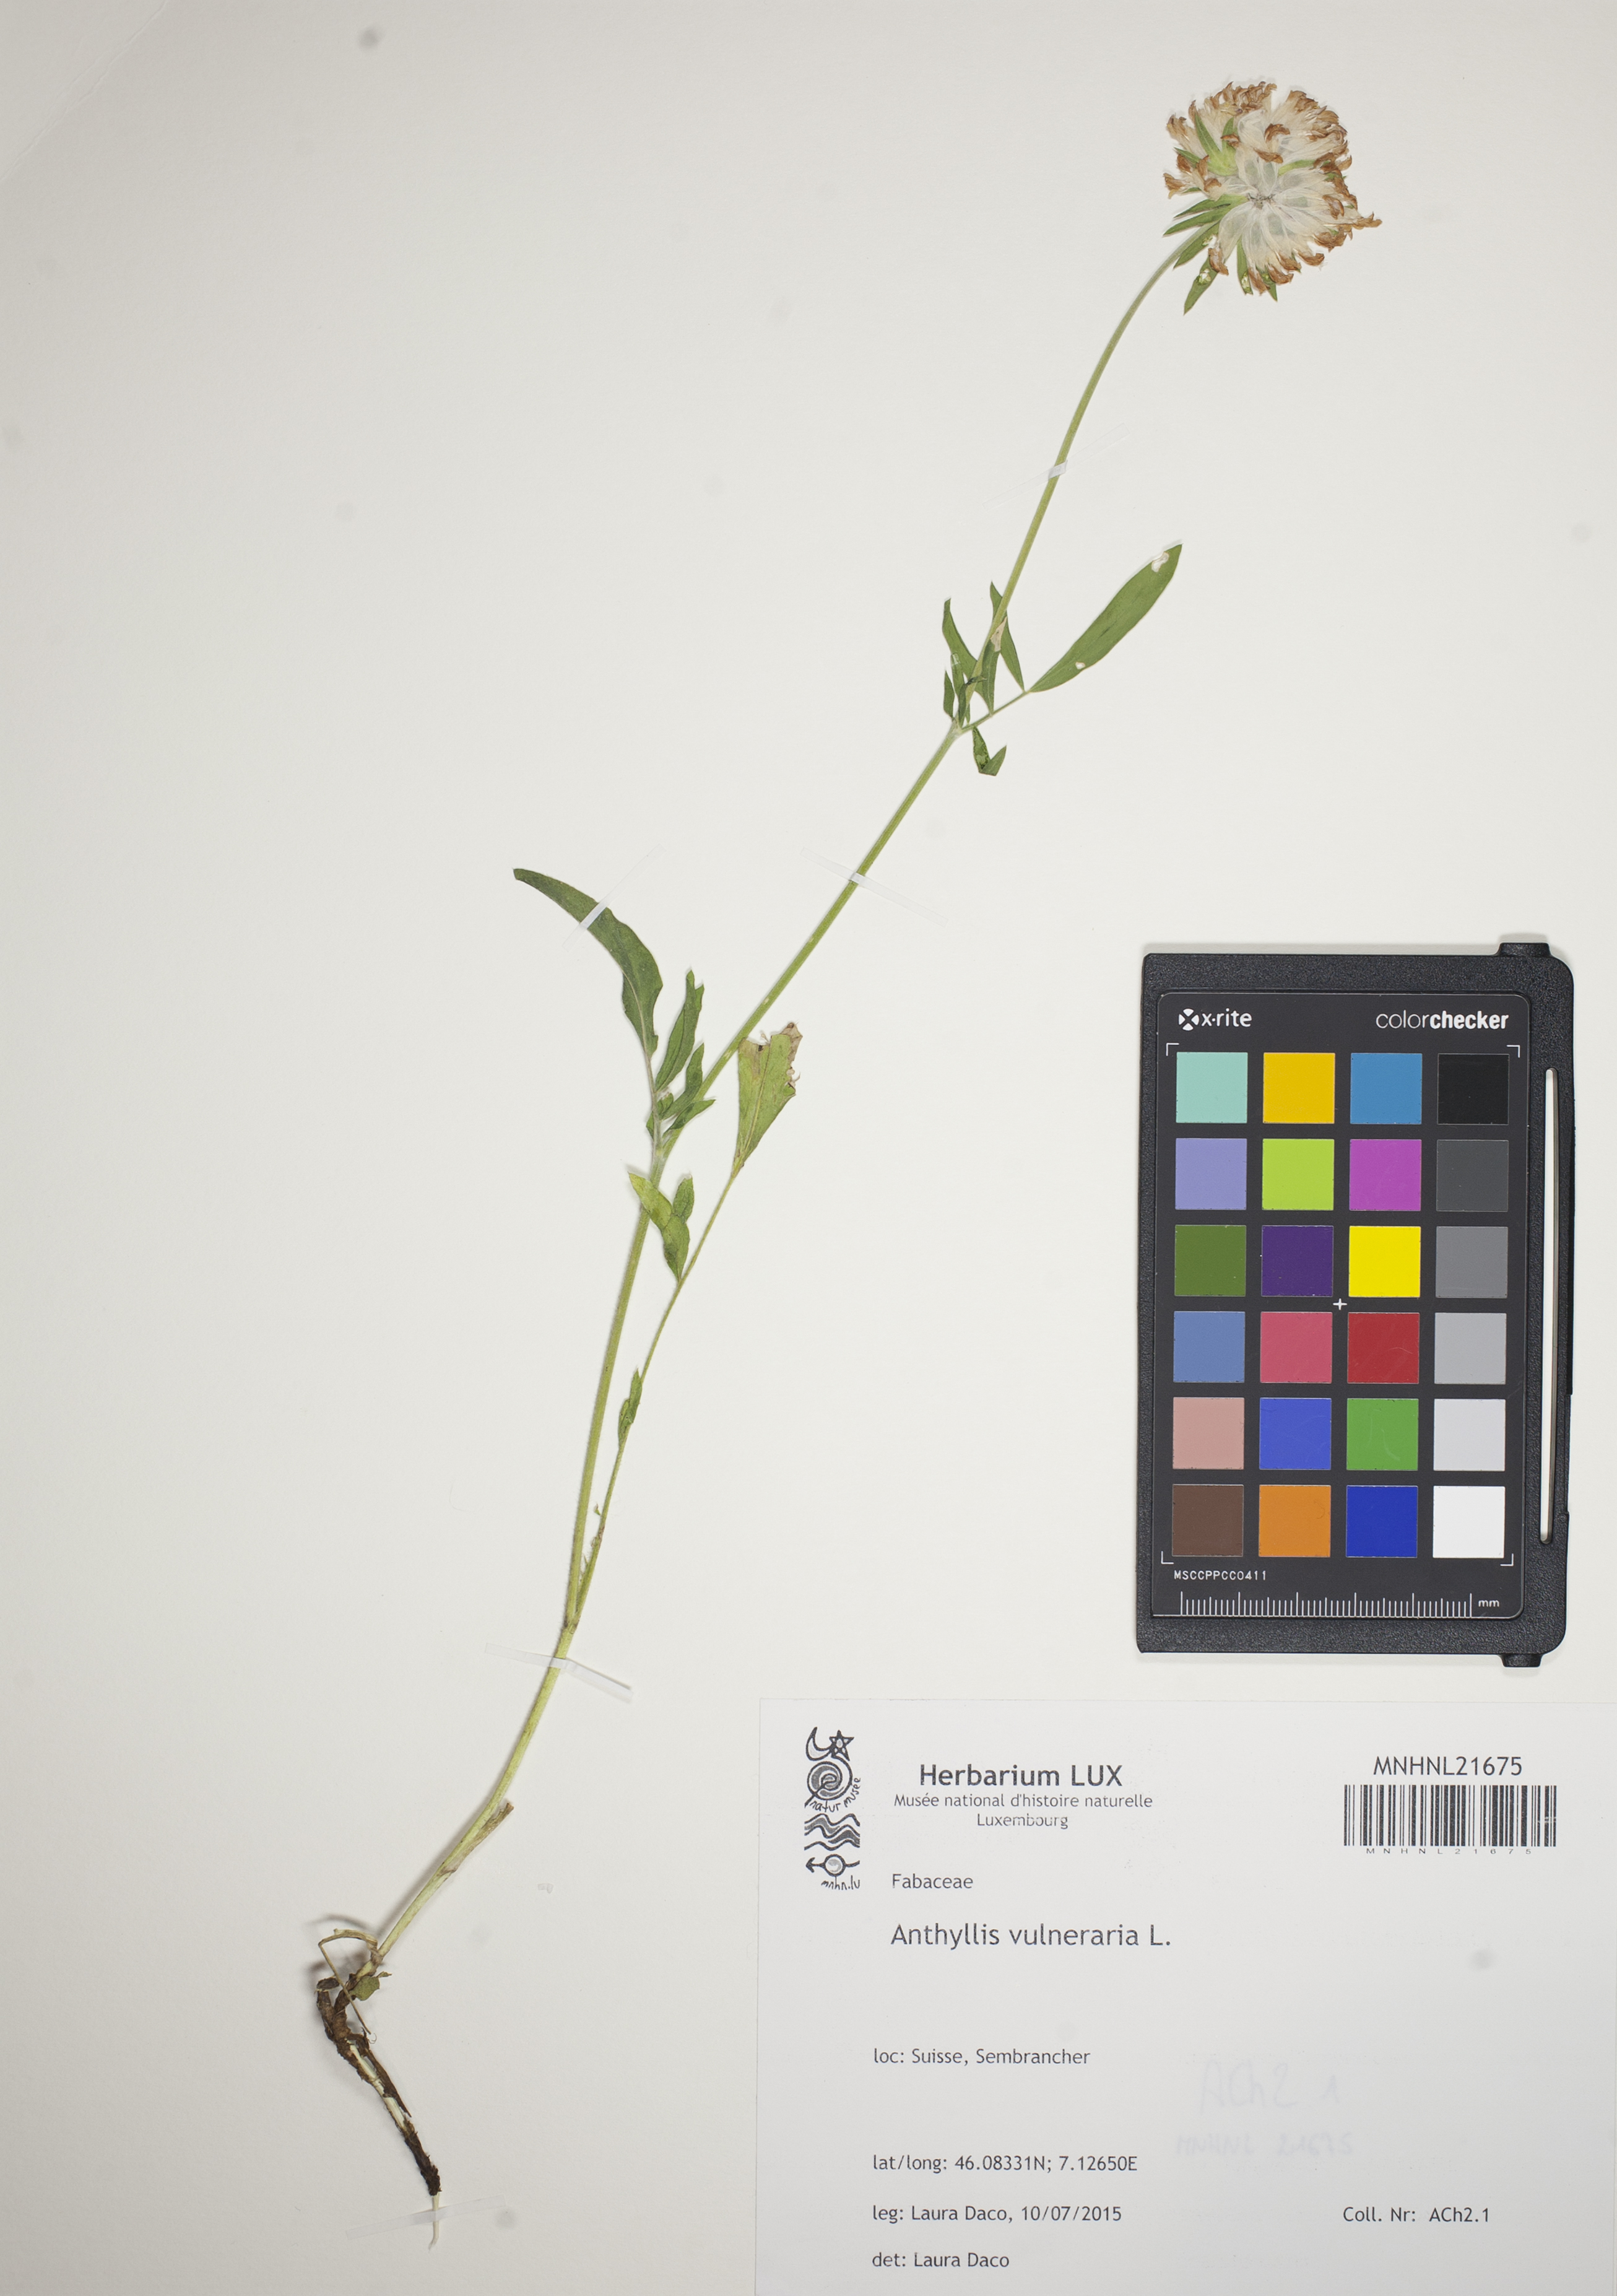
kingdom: Plantae
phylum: Tracheophyta
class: Magnoliopsida
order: Fabales
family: Fabaceae
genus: Anthyllis
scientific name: Anthyllis vulneraria
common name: Kidney vetch
